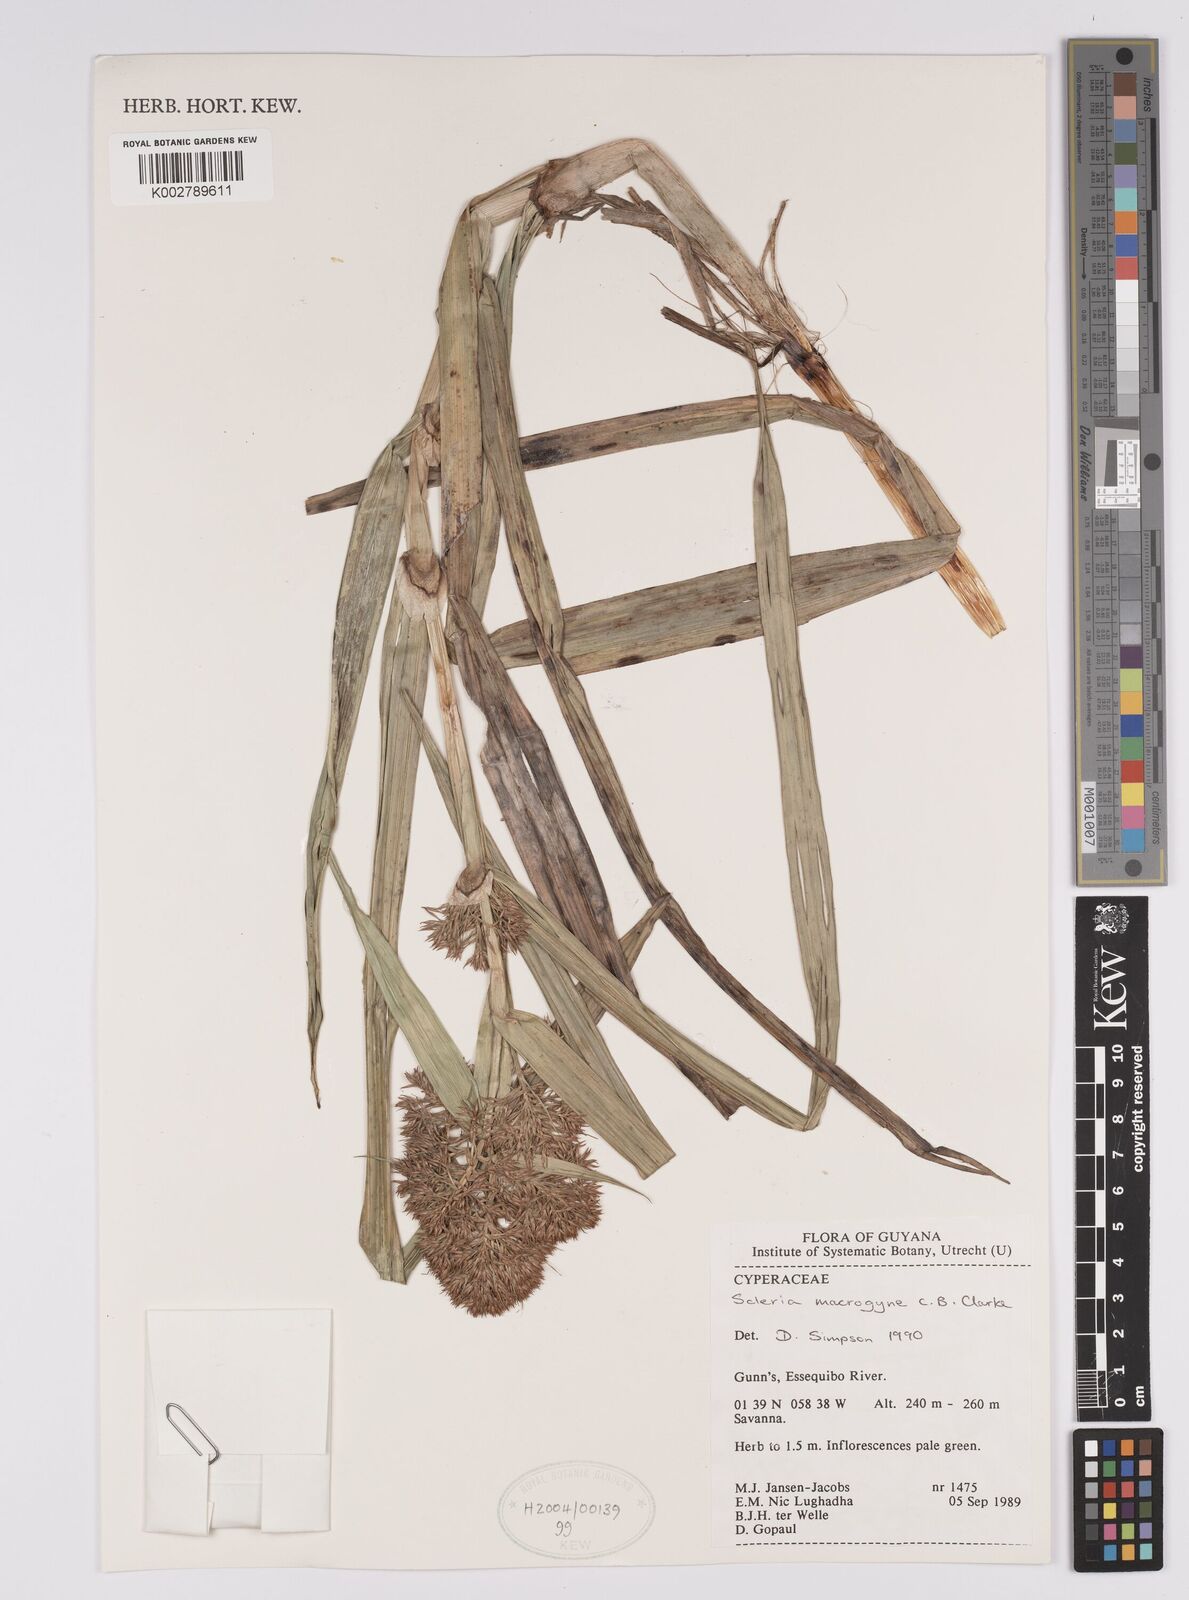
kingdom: Plantae
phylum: Tracheophyta
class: Liliopsida
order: Poales
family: Cyperaceae
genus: Scleria
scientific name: Scleria macrogyne
